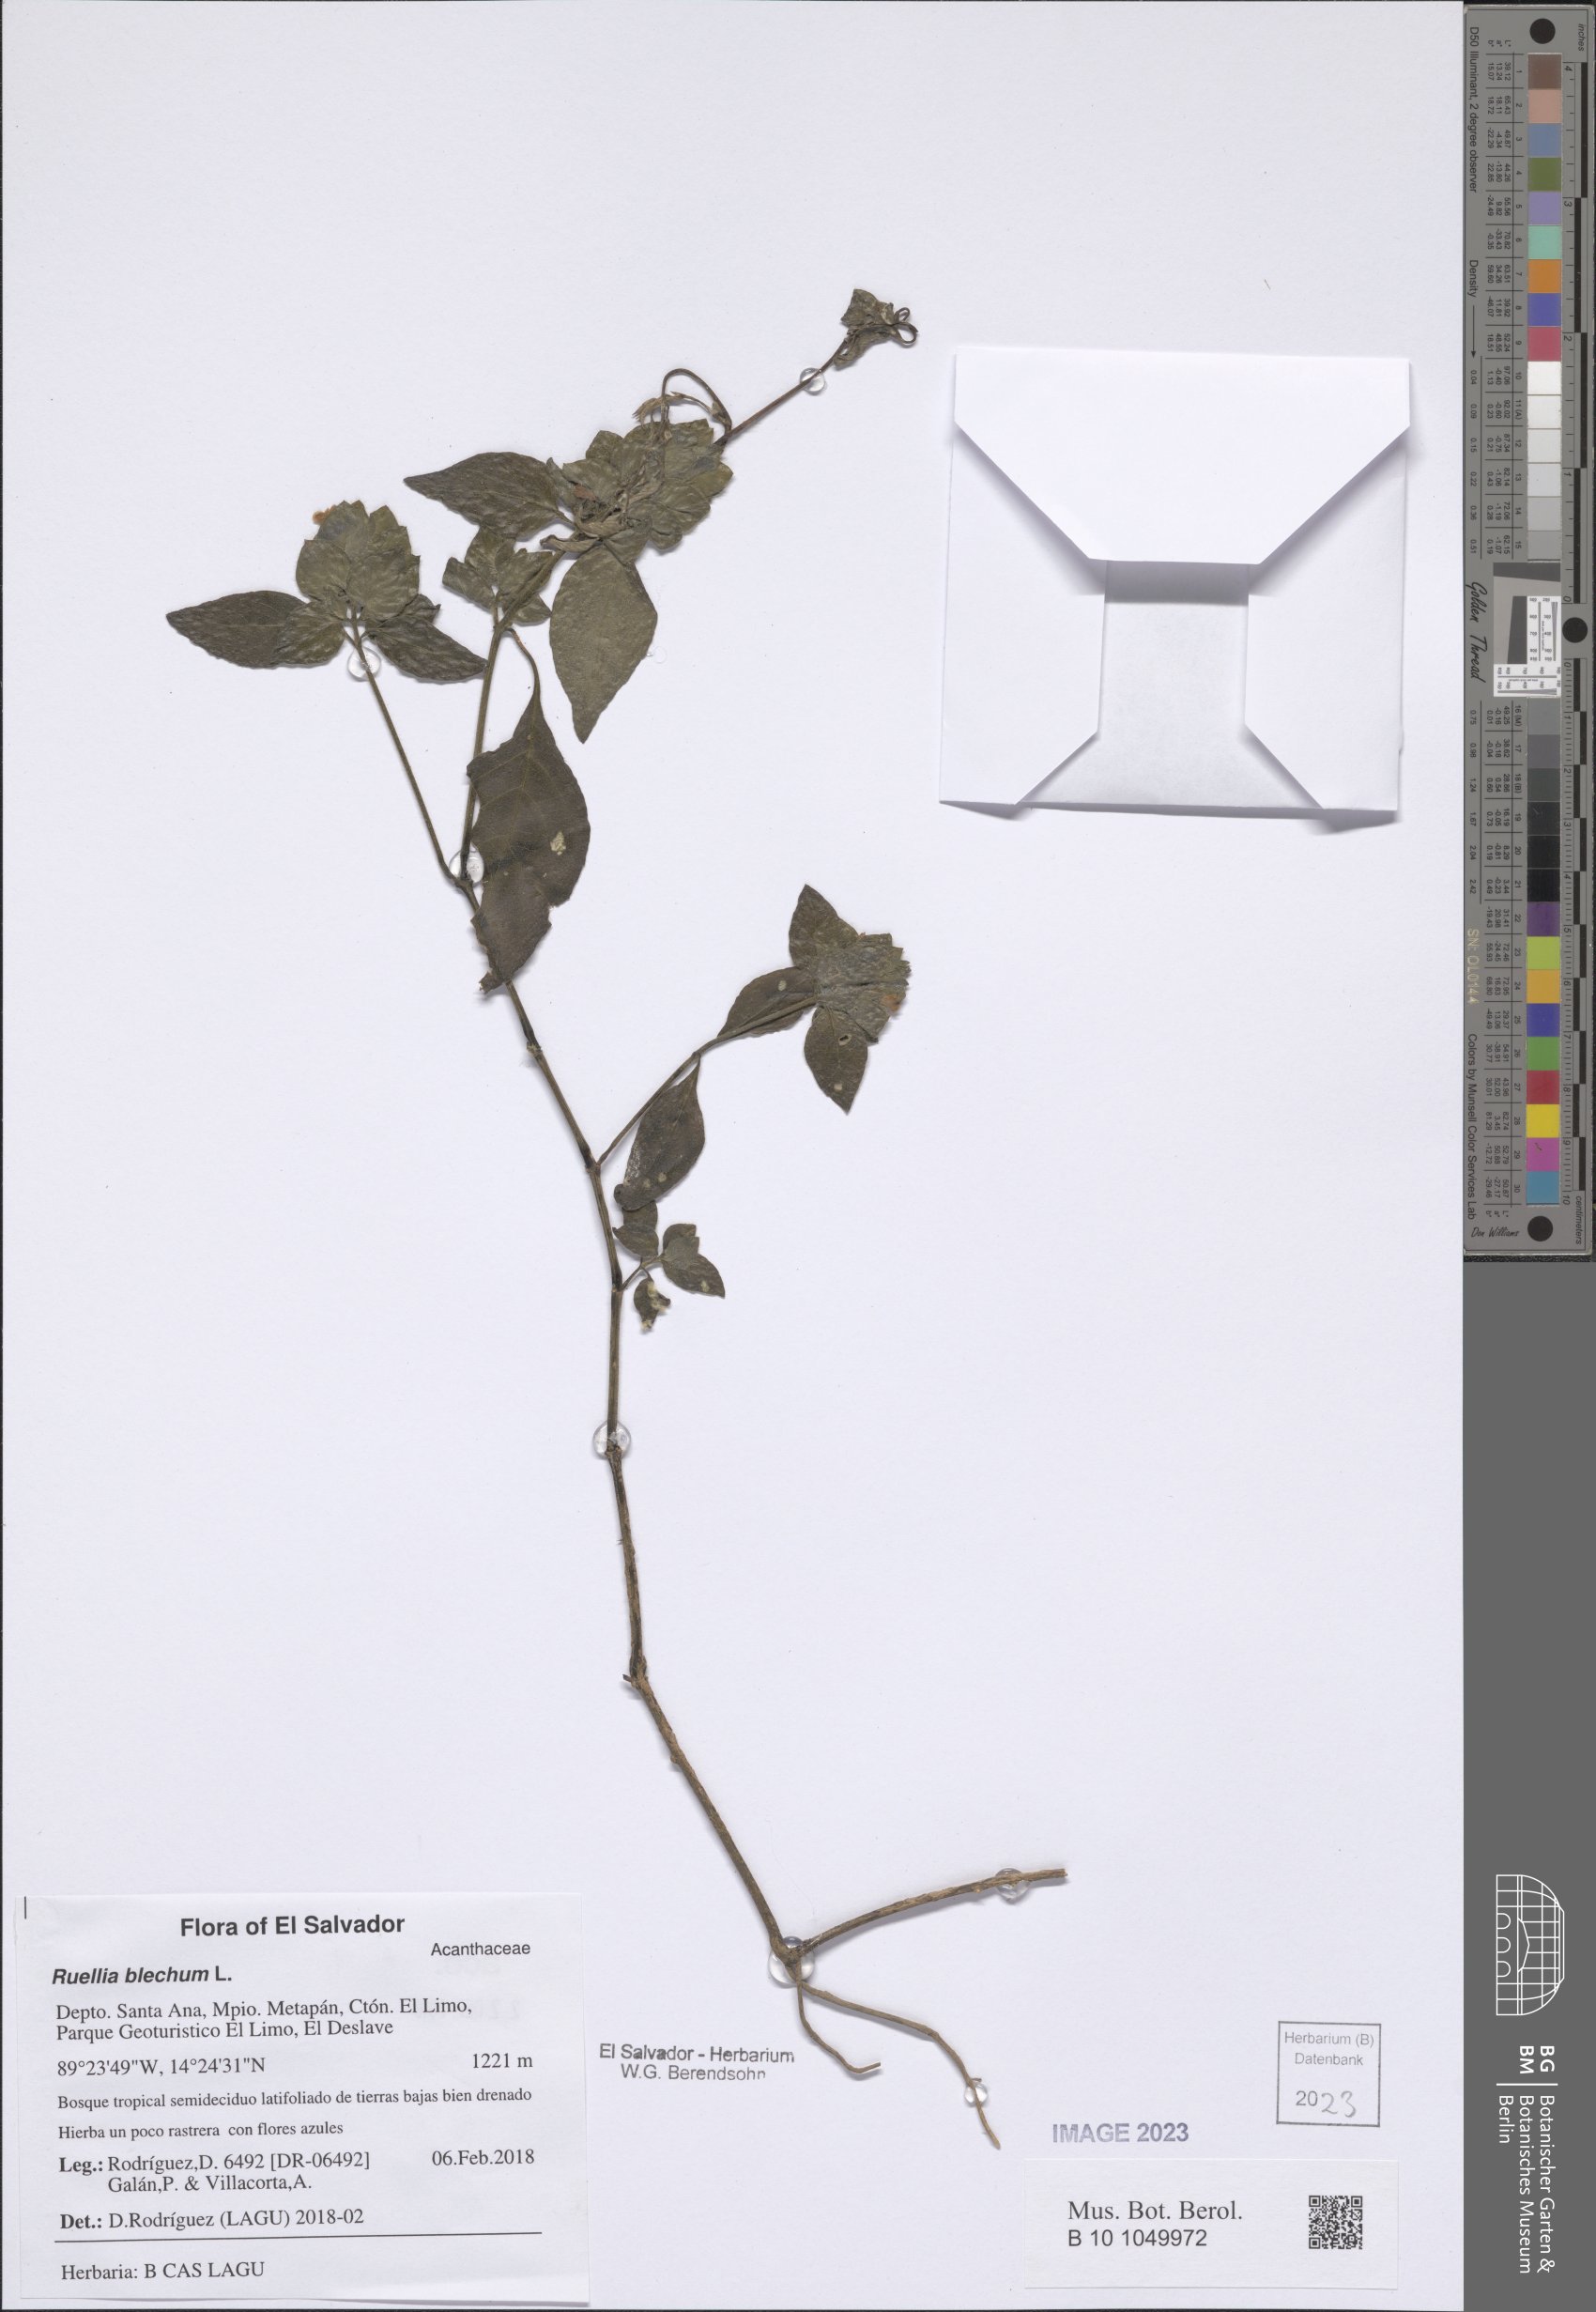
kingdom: Plantae
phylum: Tracheophyta
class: Magnoliopsida
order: Lamiales
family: Acanthaceae
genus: Ruellia
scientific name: Ruellia blechum
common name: Browne's blechum
